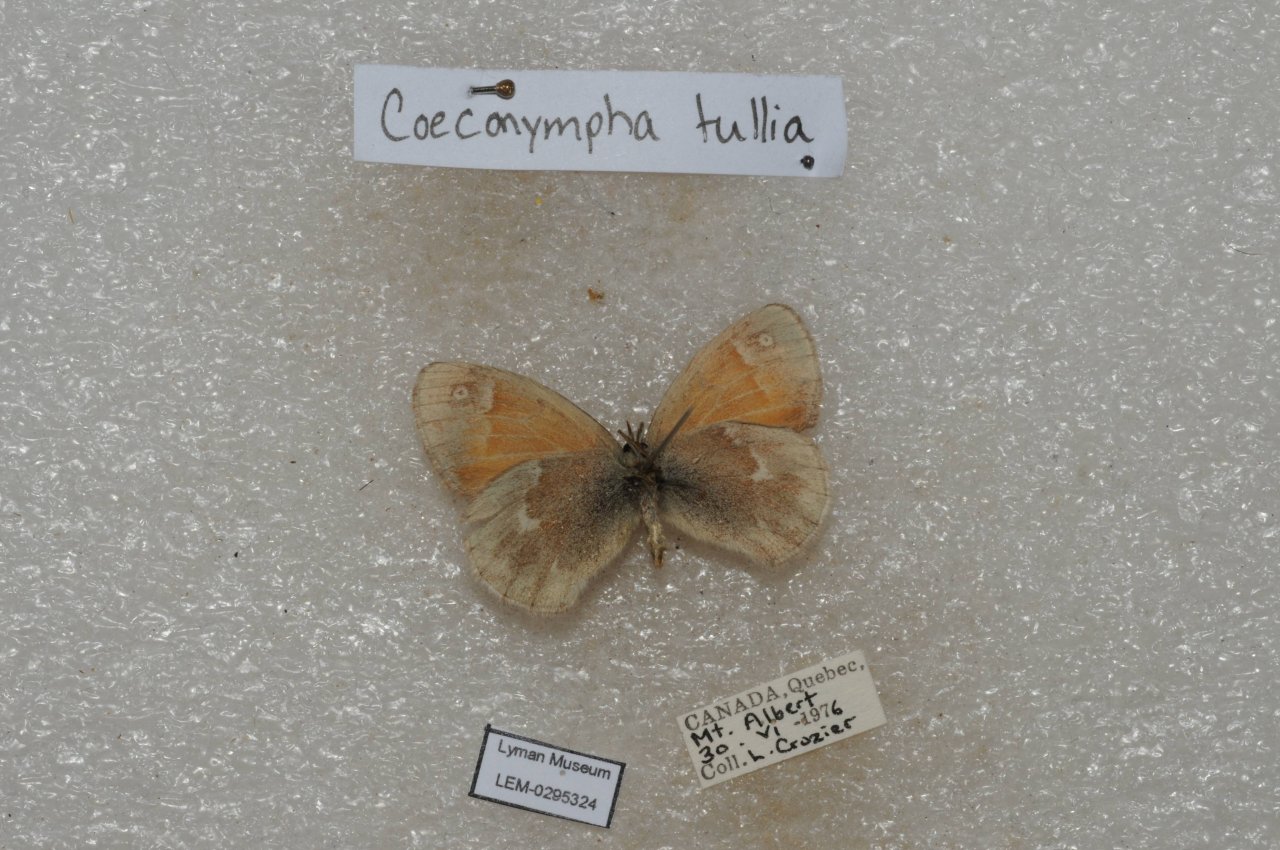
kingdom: Animalia
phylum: Arthropoda
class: Insecta
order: Lepidoptera
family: Nymphalidae
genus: Coenonympha
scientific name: Coenonympha tullia
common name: Large Heath
